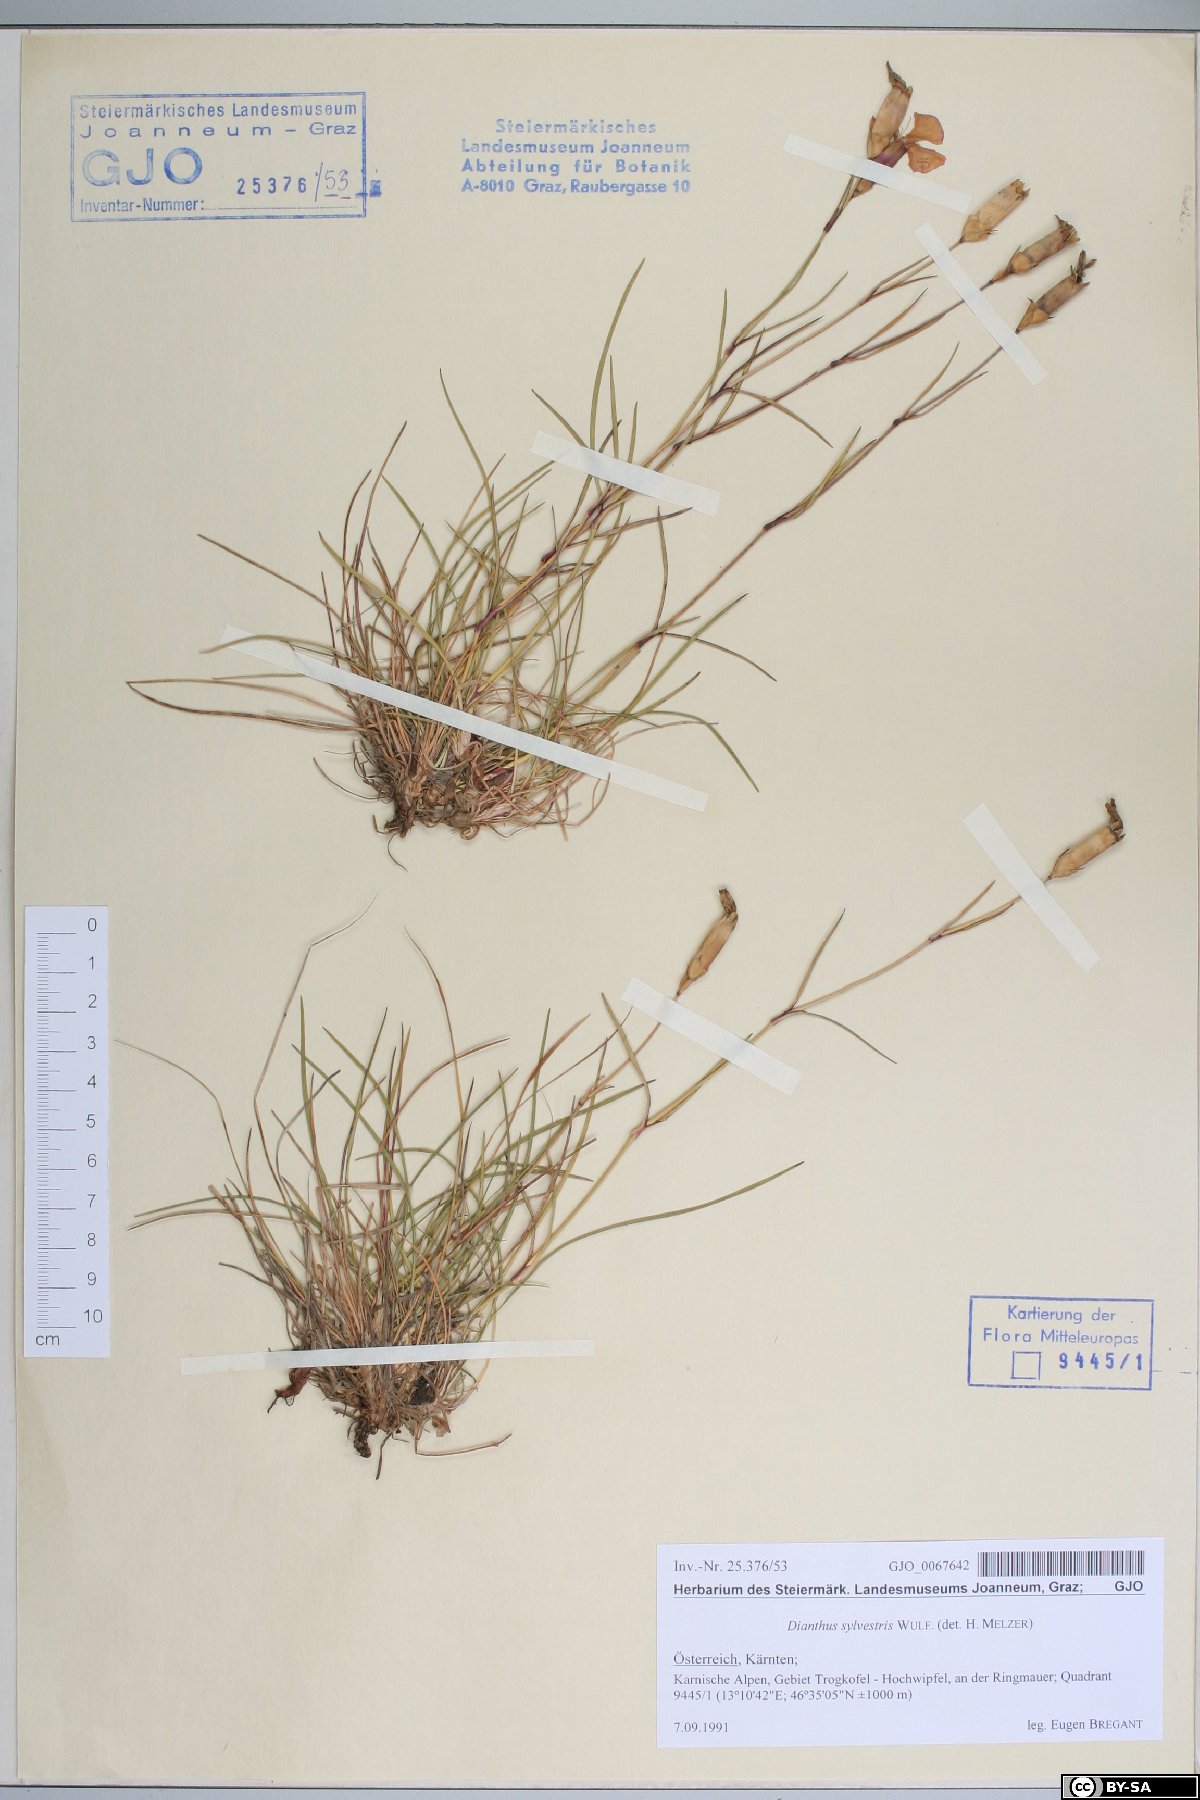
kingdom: Plantae
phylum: Tracheophyta
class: Magnoliopsida
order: Caryophyllales
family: Caryophyllaceae
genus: Dianthus
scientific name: Dianthus sylvestris
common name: Wood pink
